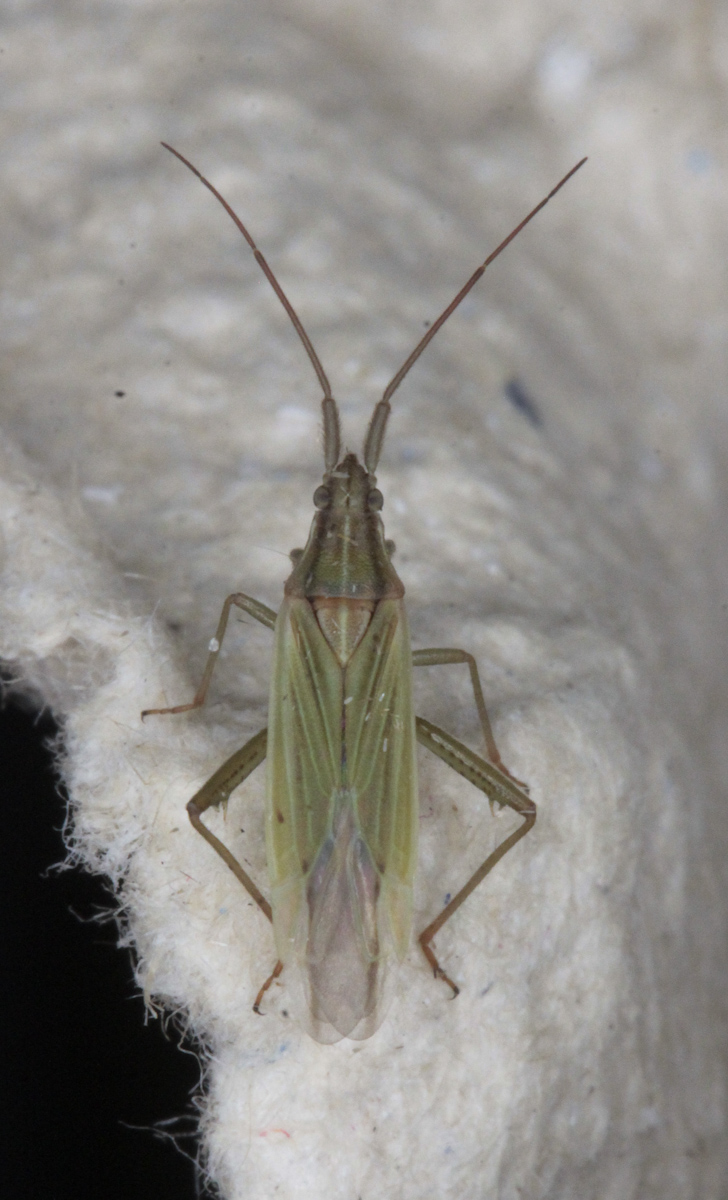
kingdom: Animalia
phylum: Arthropoda
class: Insecta
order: Hemiptera
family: Miridae
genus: Stenodema
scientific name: Stenodema calcarata
